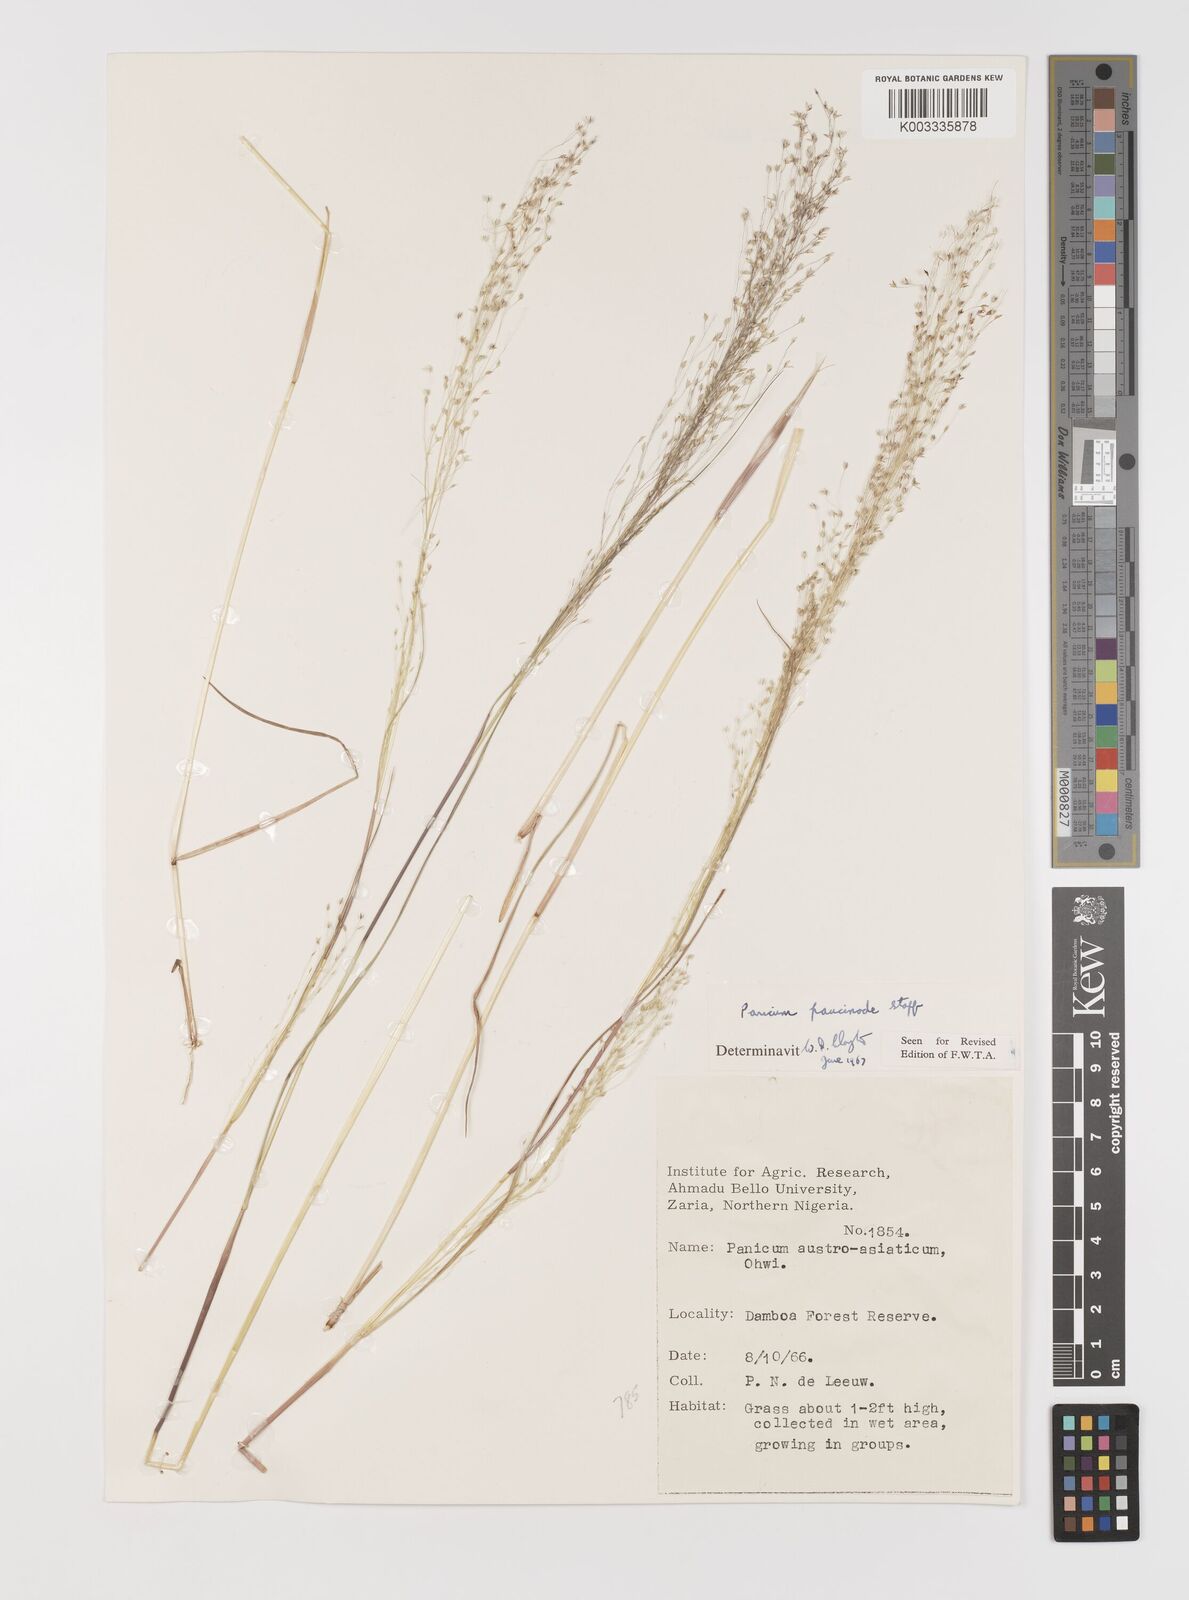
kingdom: Plantae
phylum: Tracheophyta
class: Liliopsida
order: Poales
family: Poaceae
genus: Panicum
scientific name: Panicum paucinode
